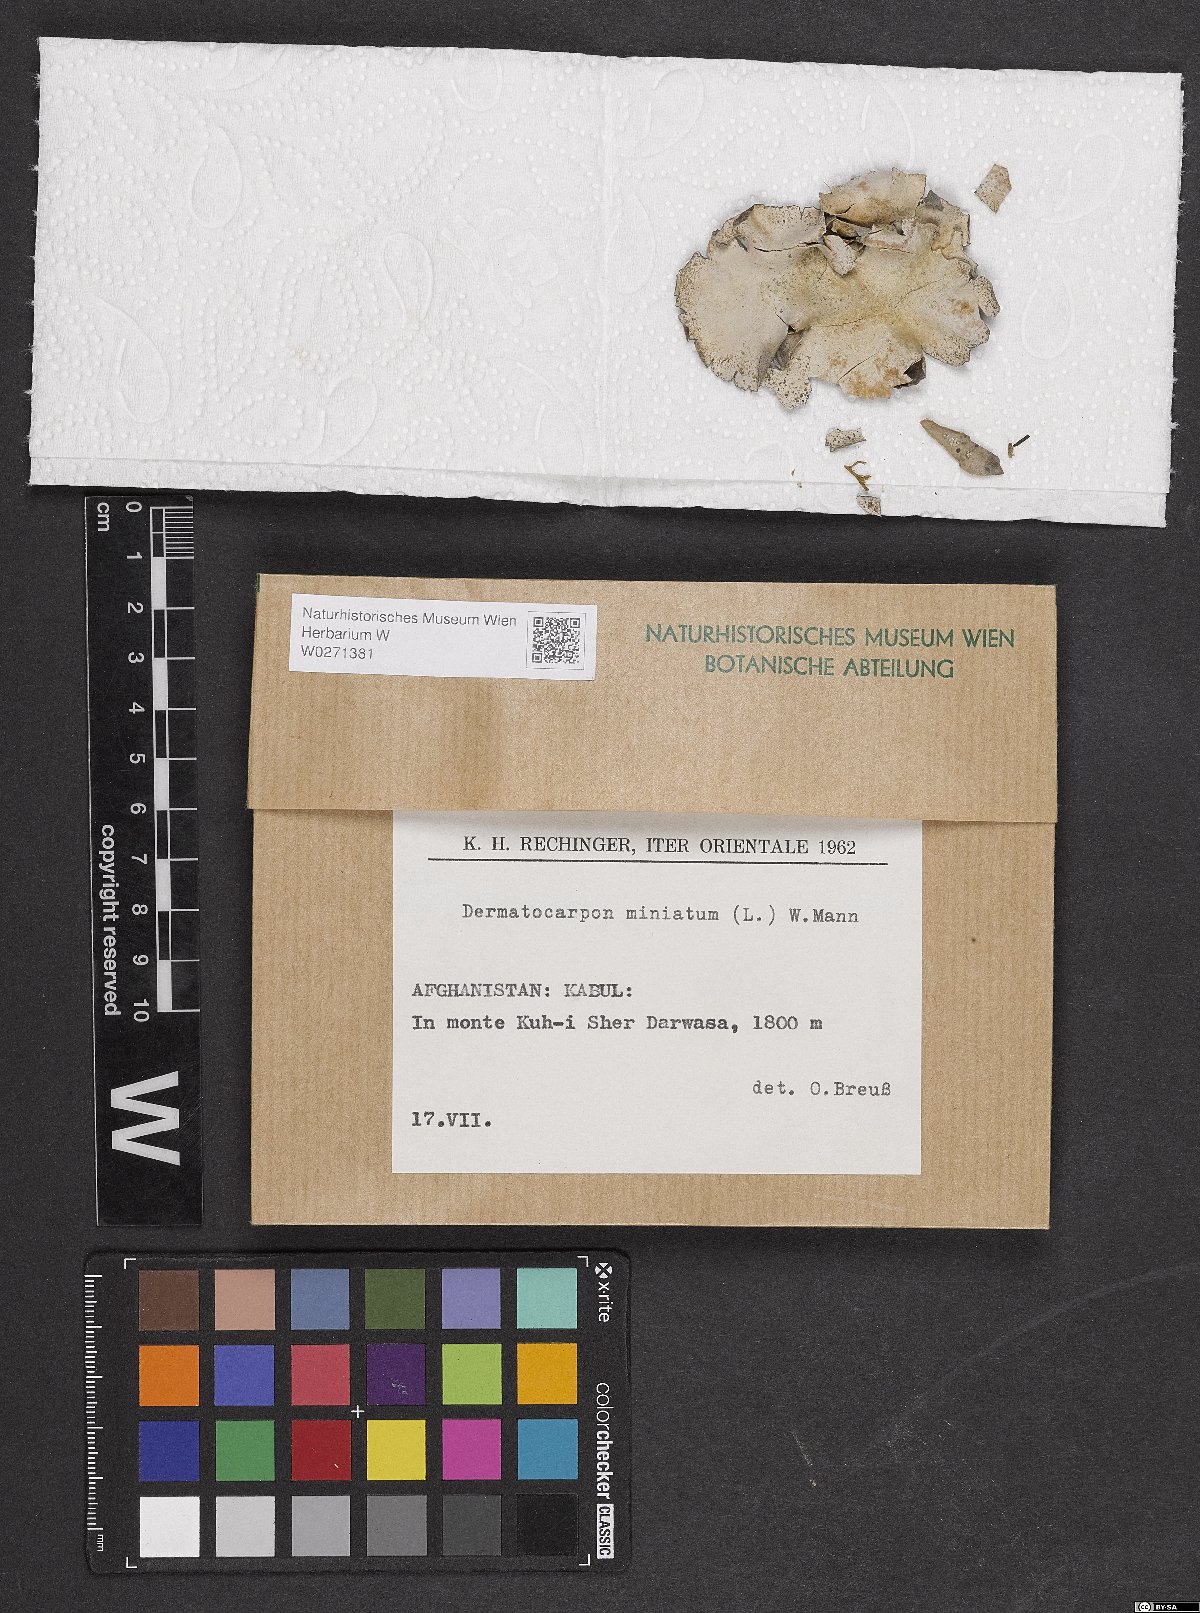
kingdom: Fungi
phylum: Ascomycota
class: Eurotiomycetes
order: Verrucariales
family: Verrucariaceae
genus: Dermatocarpon
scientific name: Dermatocarpon miniatum
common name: Leather lichen
